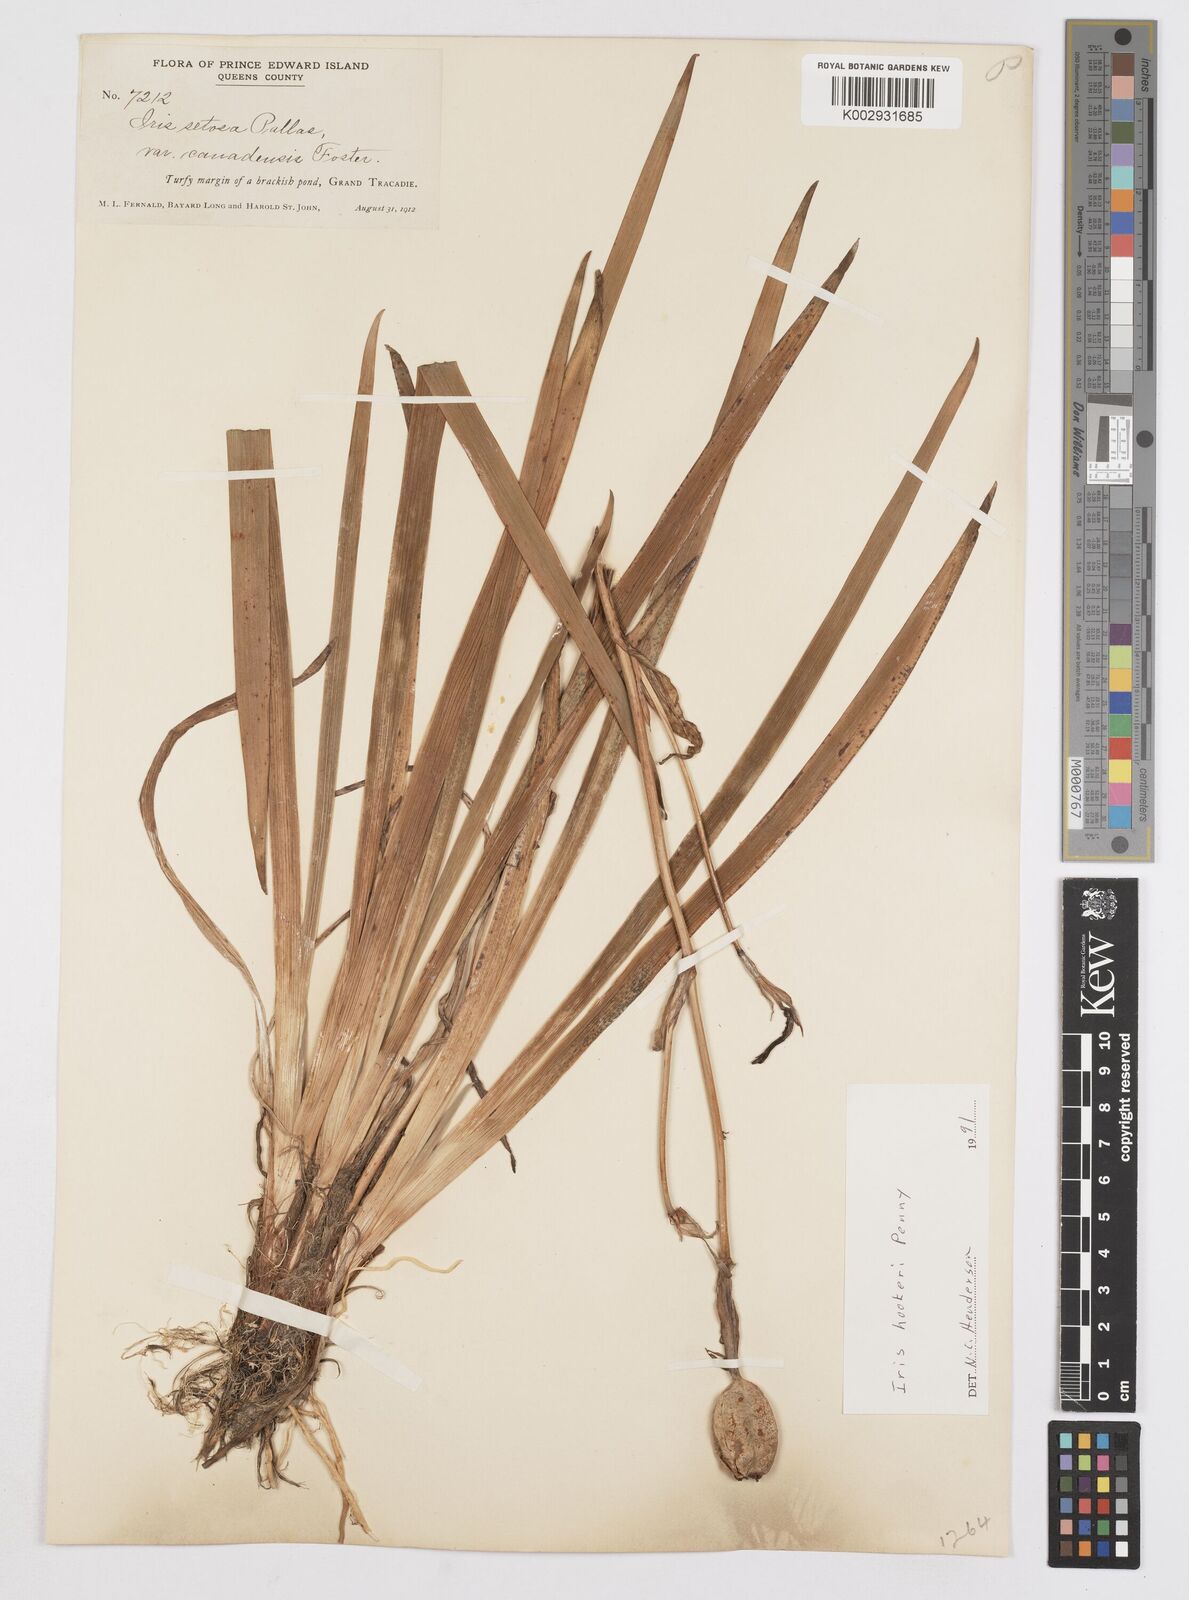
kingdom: Plantae
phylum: Tracheophyta
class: Liliopsida
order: Asparagales
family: Iridaceae
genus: Iris
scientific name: Iris setosa
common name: Arctic blue flag
